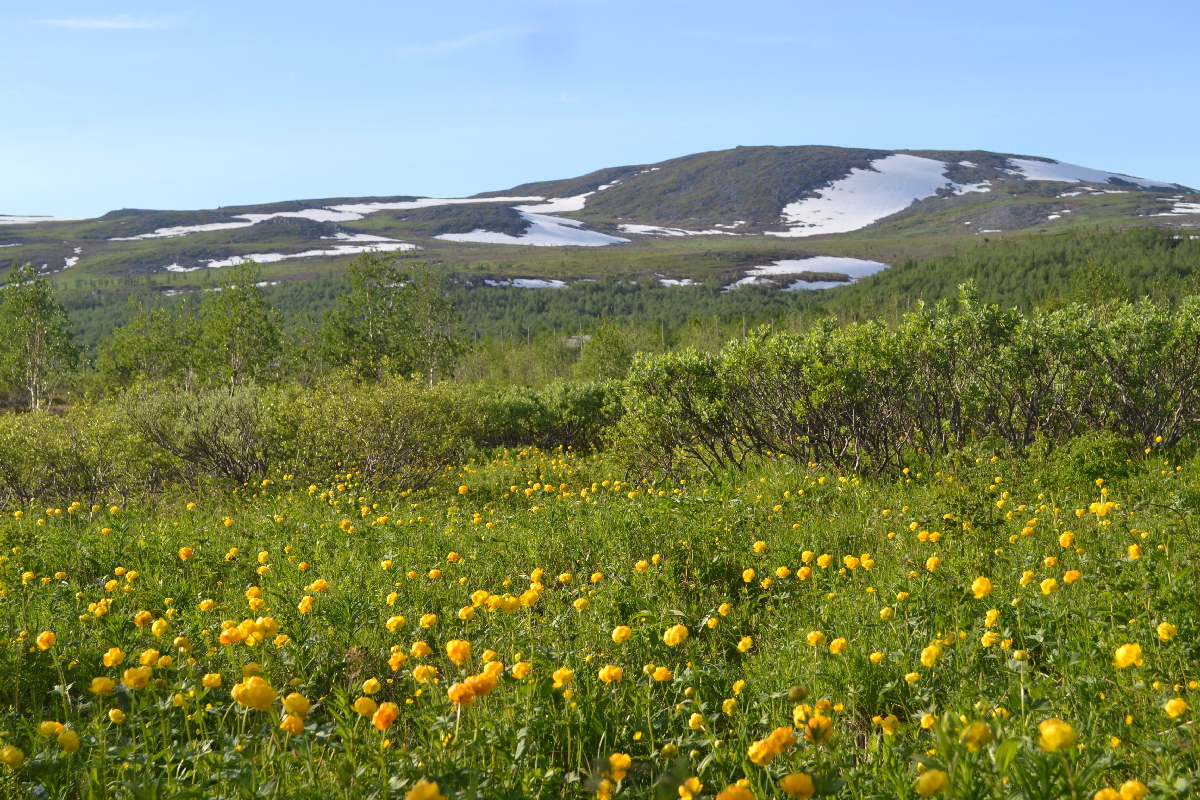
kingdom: Plantae
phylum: Tracheophyta
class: Magnoliopsida
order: Ranunculales
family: Ranunculaceae
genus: Trollius
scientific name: Trollius apertus
